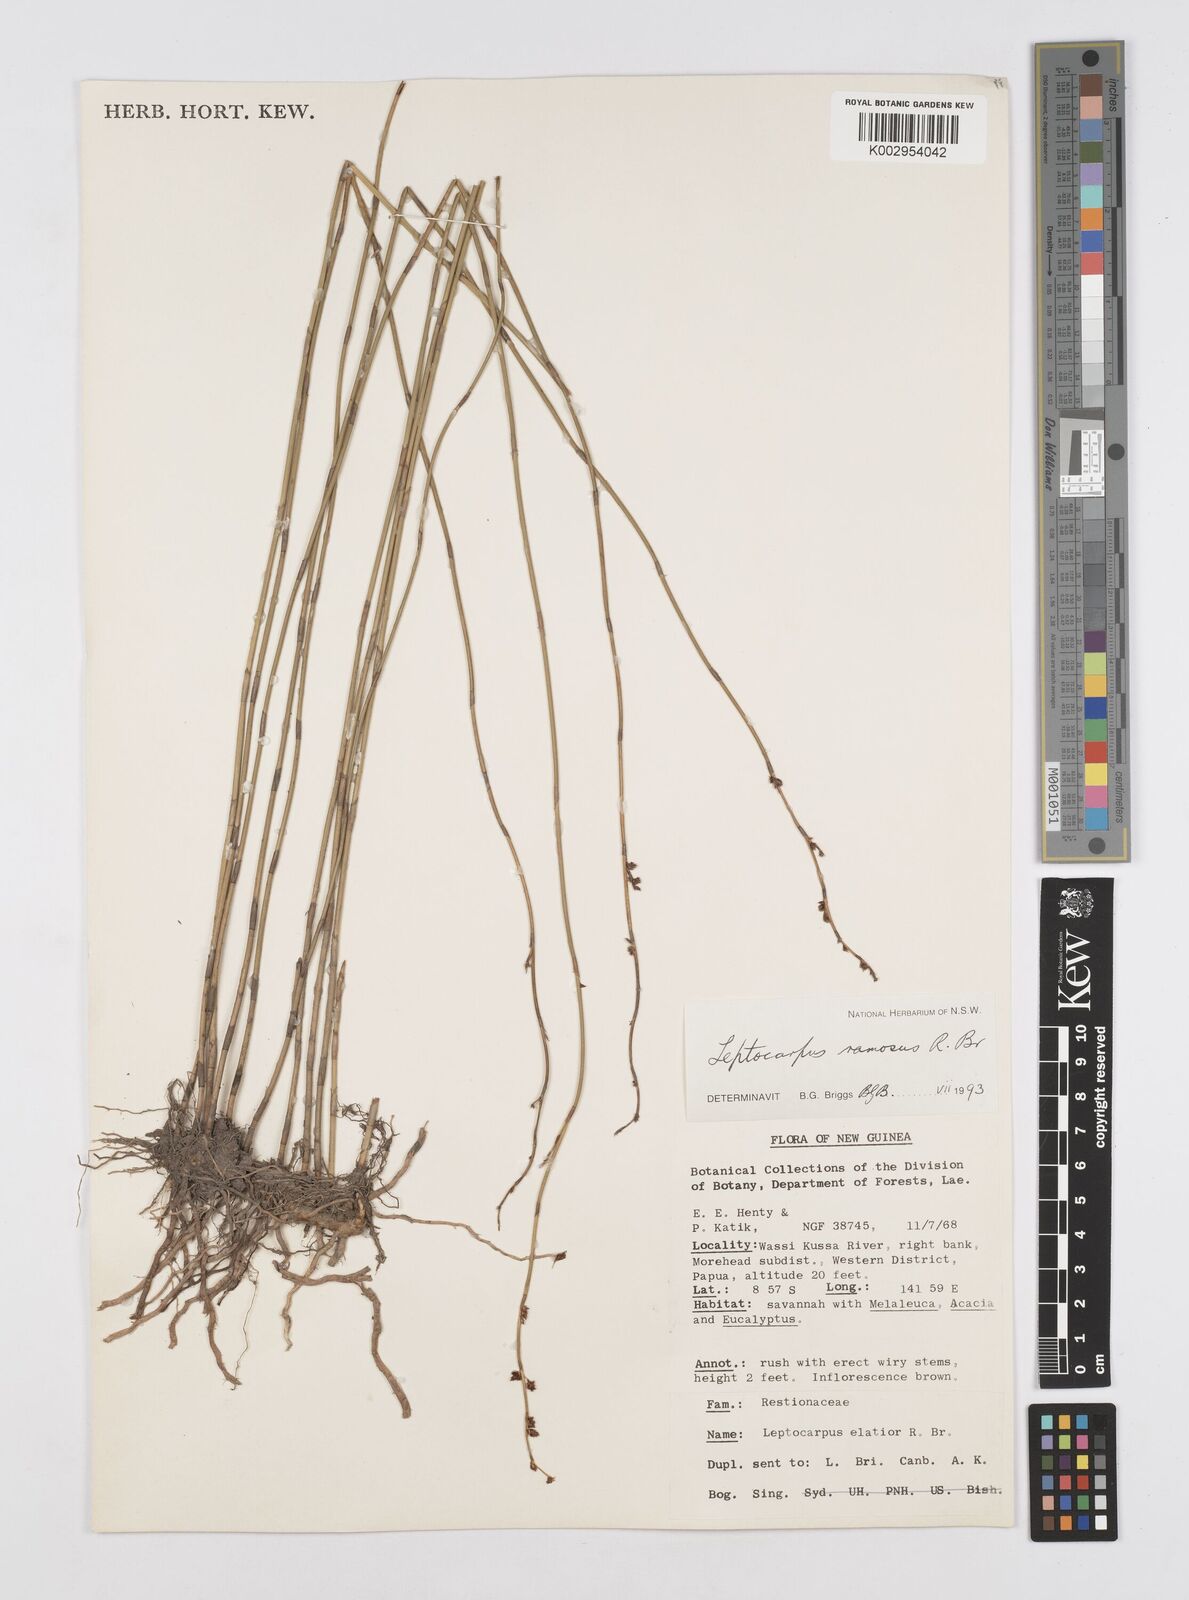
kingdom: Plantae
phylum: Tracheophyta
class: Liliopsida
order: Poales
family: Restionaceae
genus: Dapsilanthus
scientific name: Dapsilanthus ramosus
